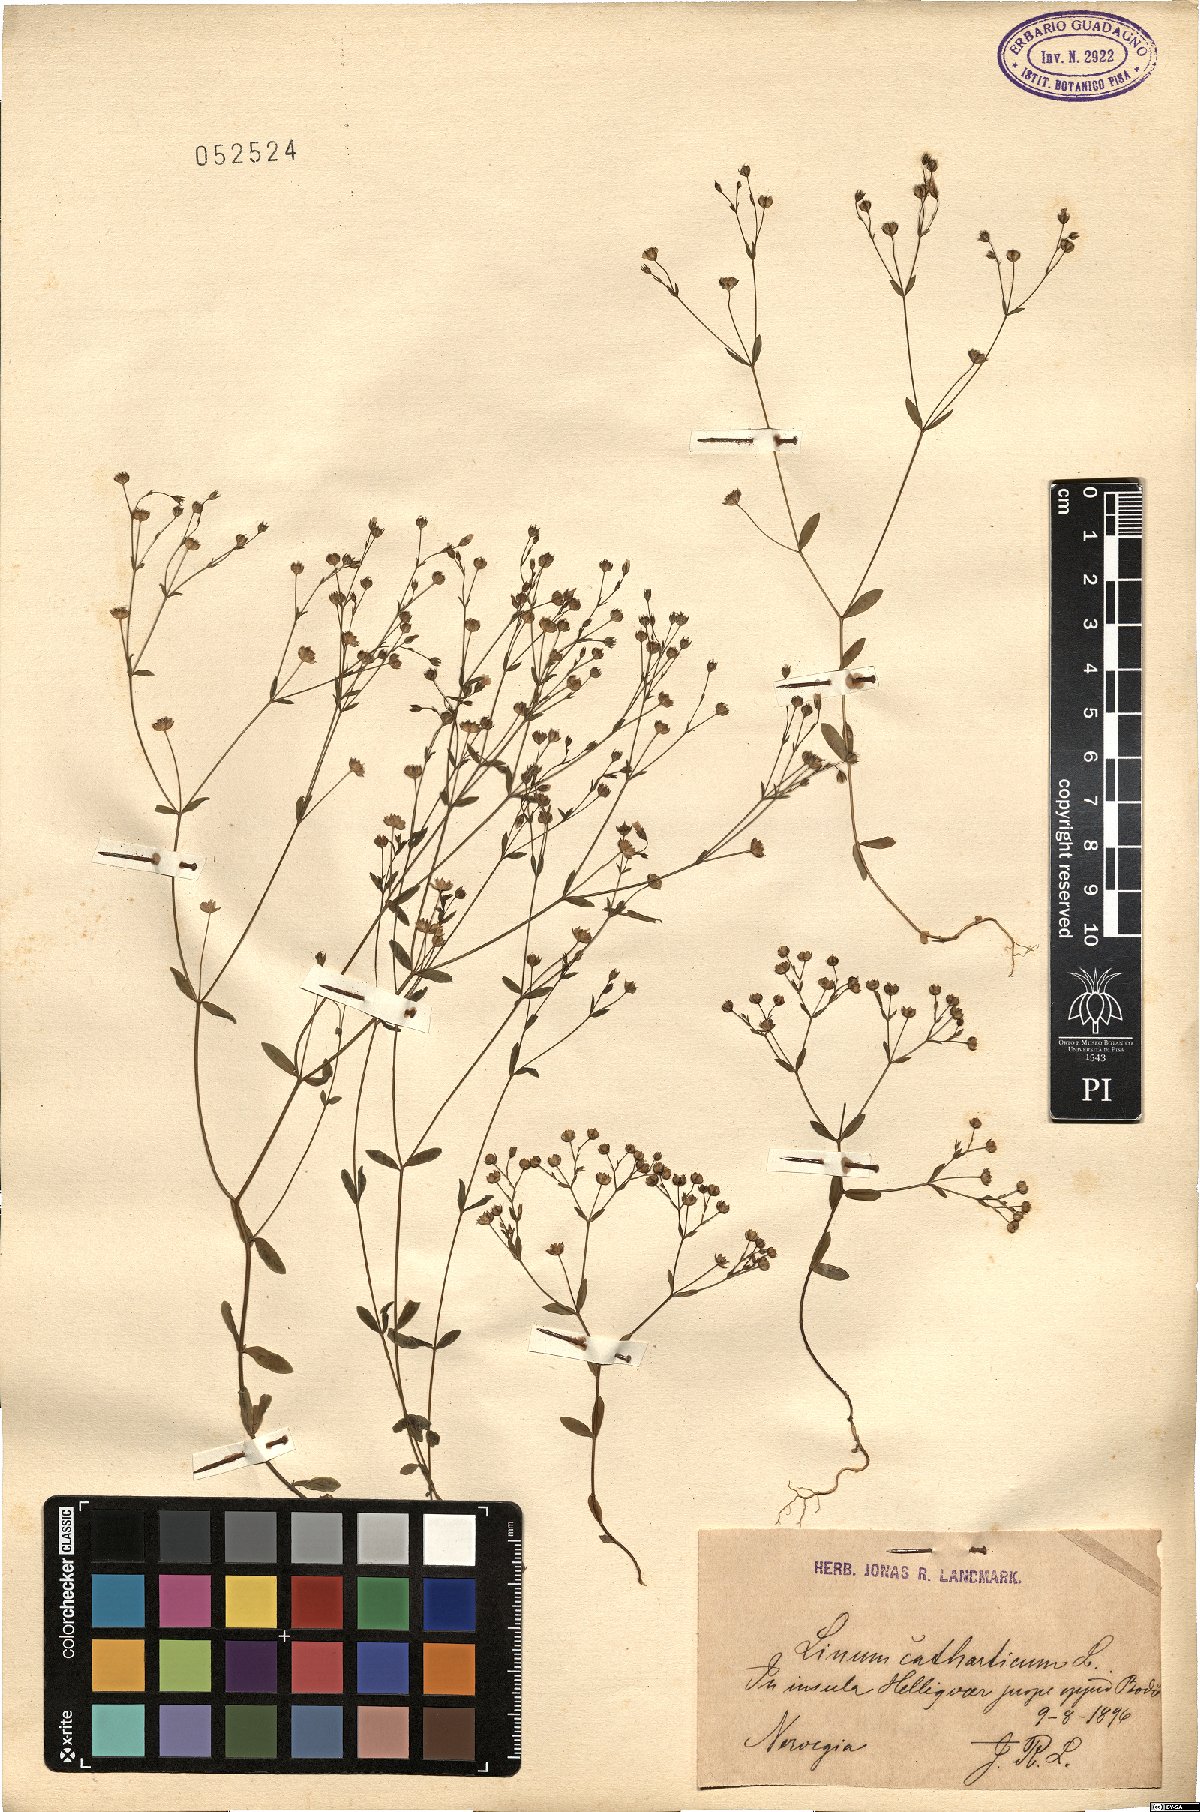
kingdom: Plantae
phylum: Tracheophyta
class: Magnoliopsida
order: Malpighiales
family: Linaceae
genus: Linum
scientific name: Linum catharticum
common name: Fairy flax
